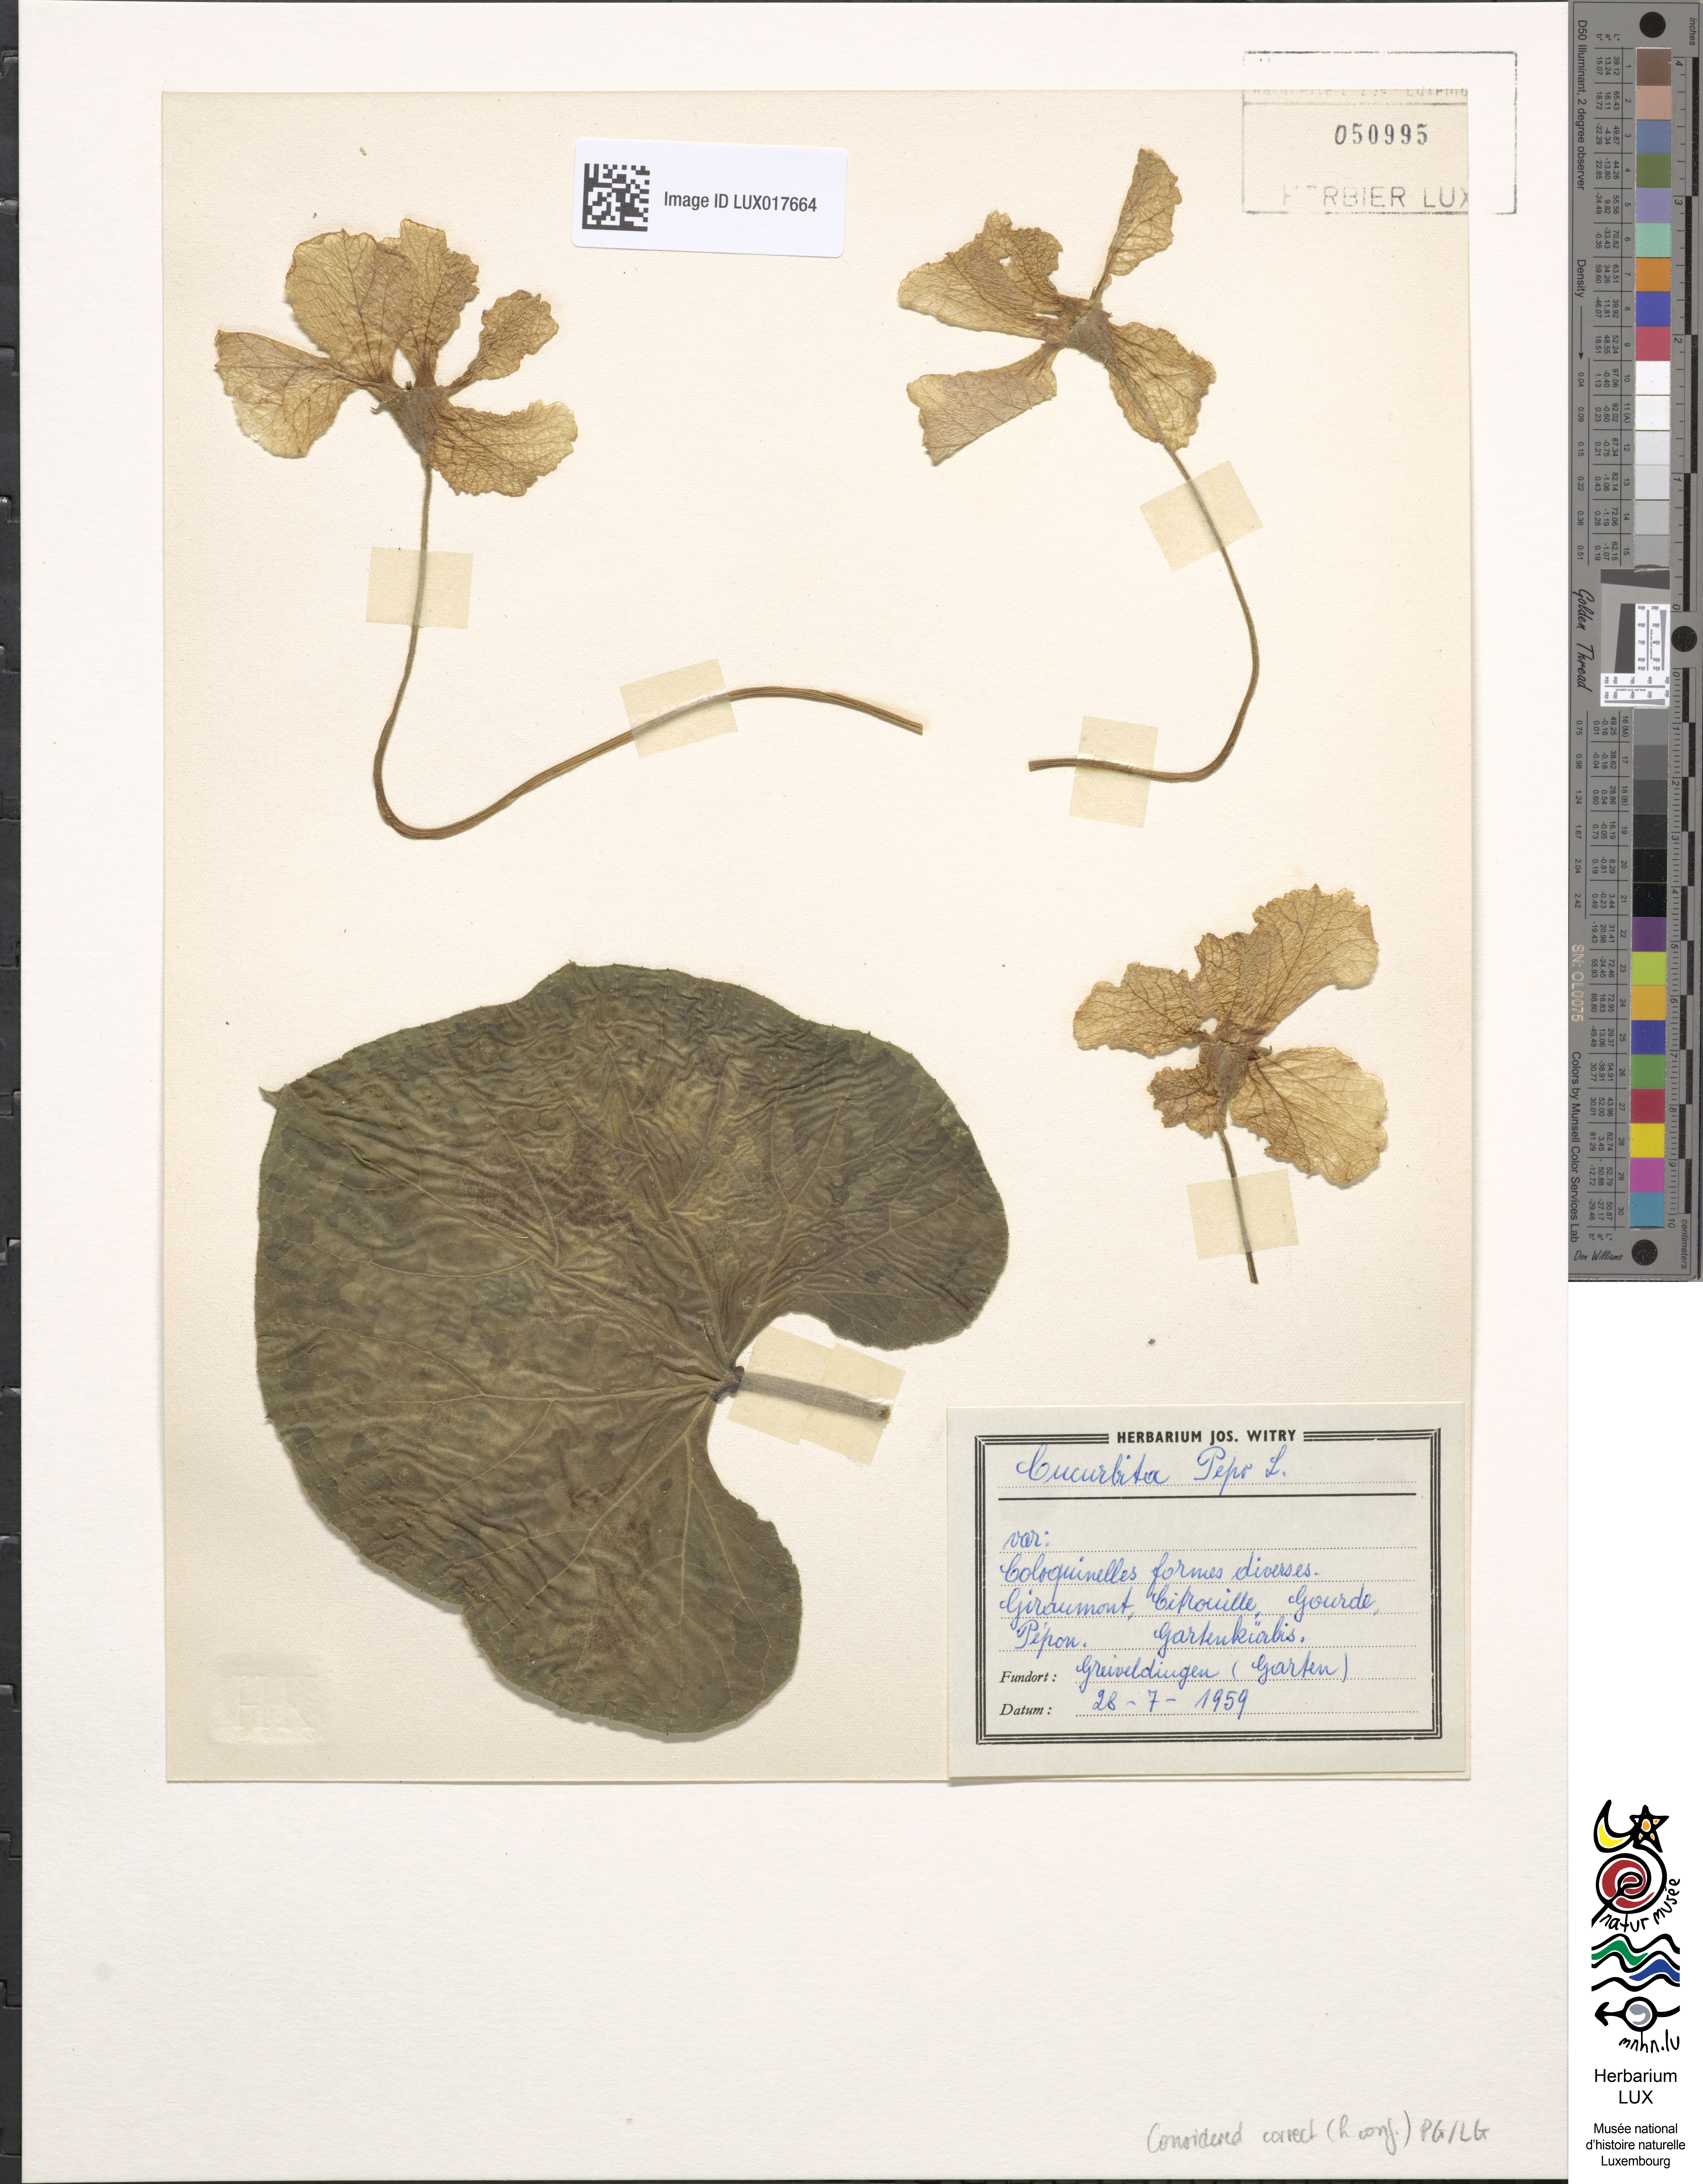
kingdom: Plantae
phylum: Tracheophyta
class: Magnoliopsida
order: Cucurbitales
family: Cucurbitaceae
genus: Cucurbita
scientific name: Cucurbita pepo
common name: Marrow
